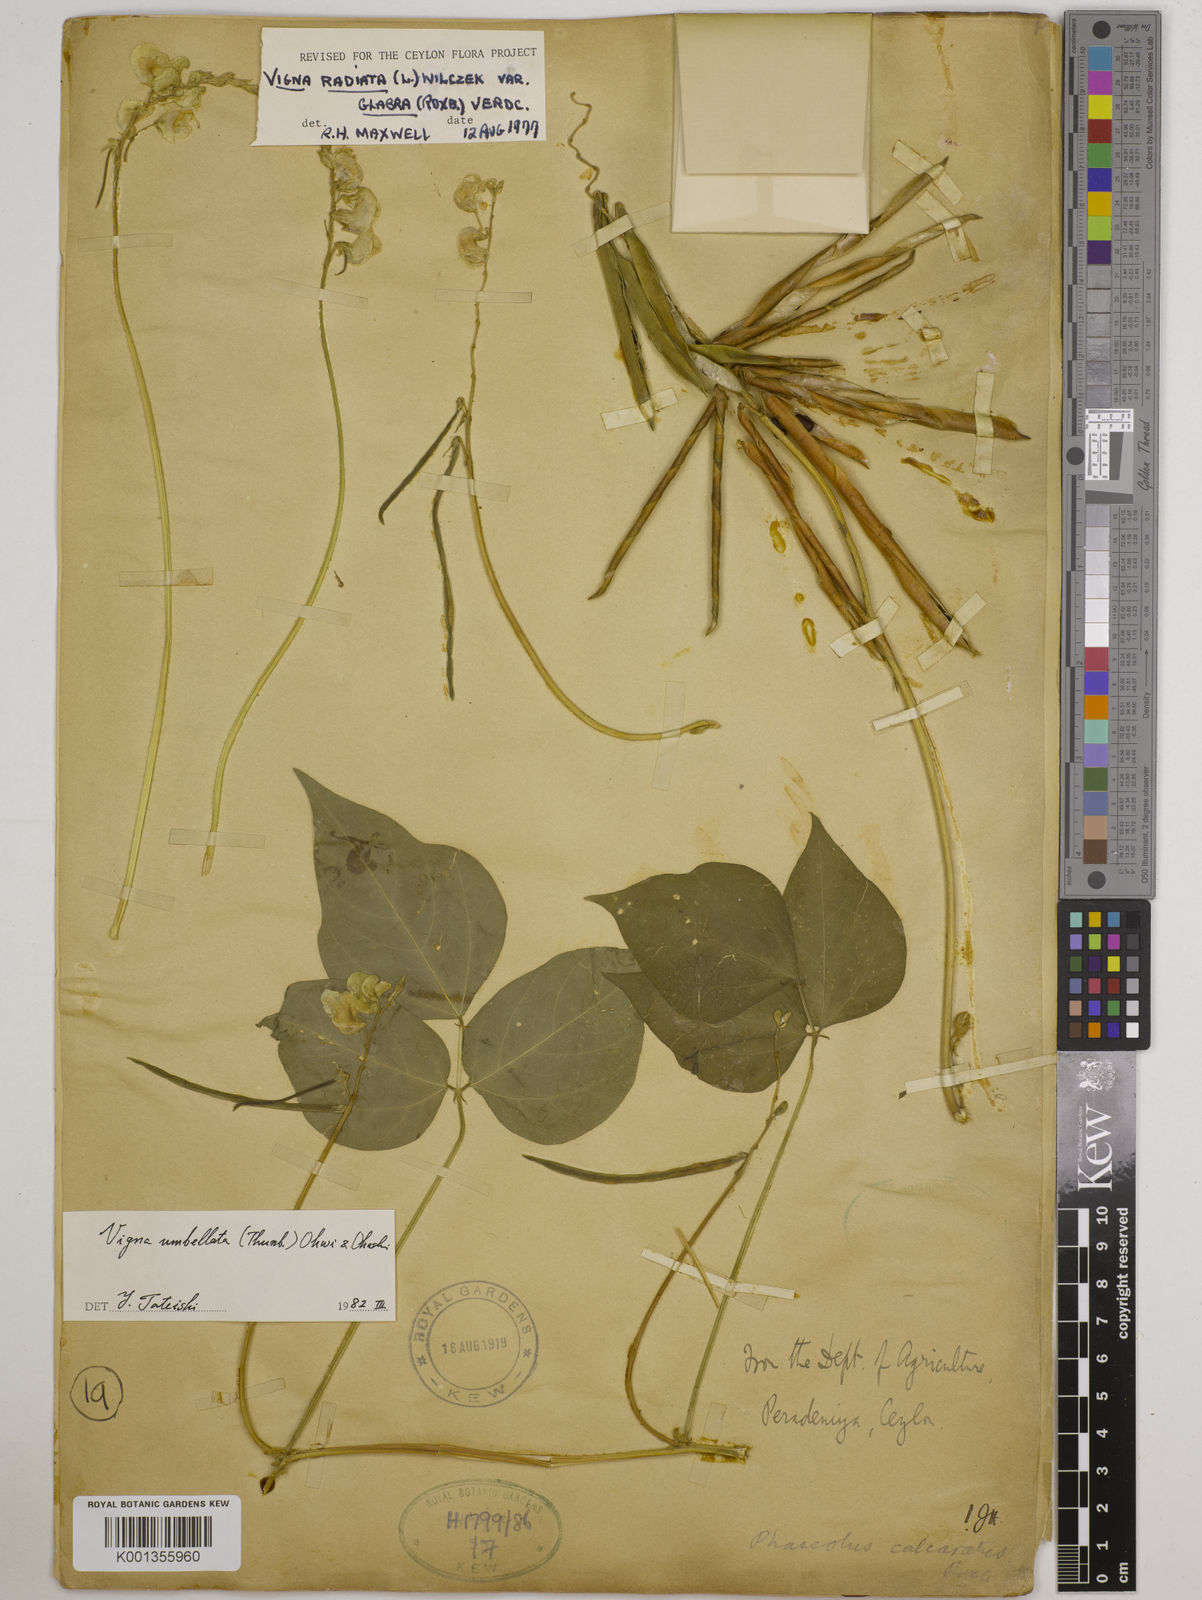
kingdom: Plantae
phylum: Tracheophyta
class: Magnoliopsida
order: Fabales
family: Fabaceae
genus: Vigna
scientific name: Vigna umbellata
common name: Oriental-bean
